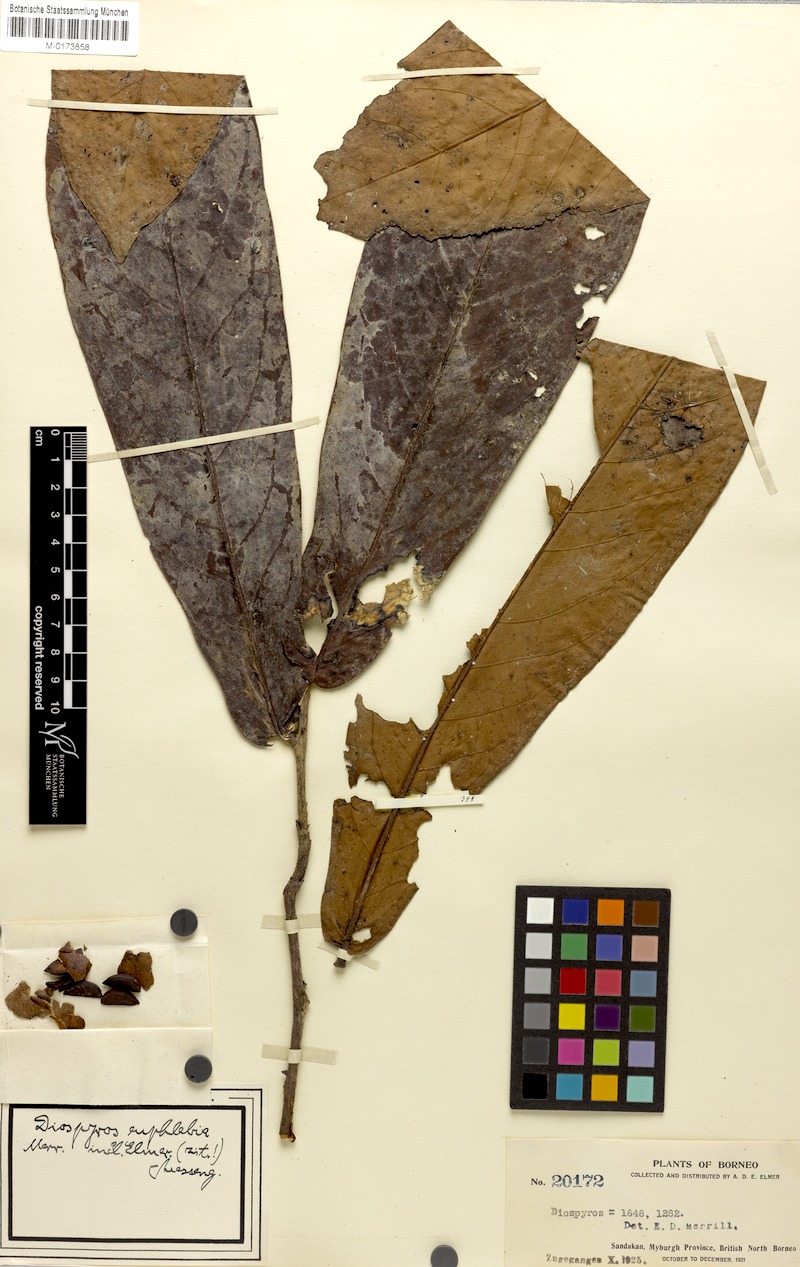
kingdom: Plantae
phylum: Tracheophyta
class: Magnoliopsida
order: Ericales
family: Ebenaceae
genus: Diospyros
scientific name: Diospyros euphlebia
